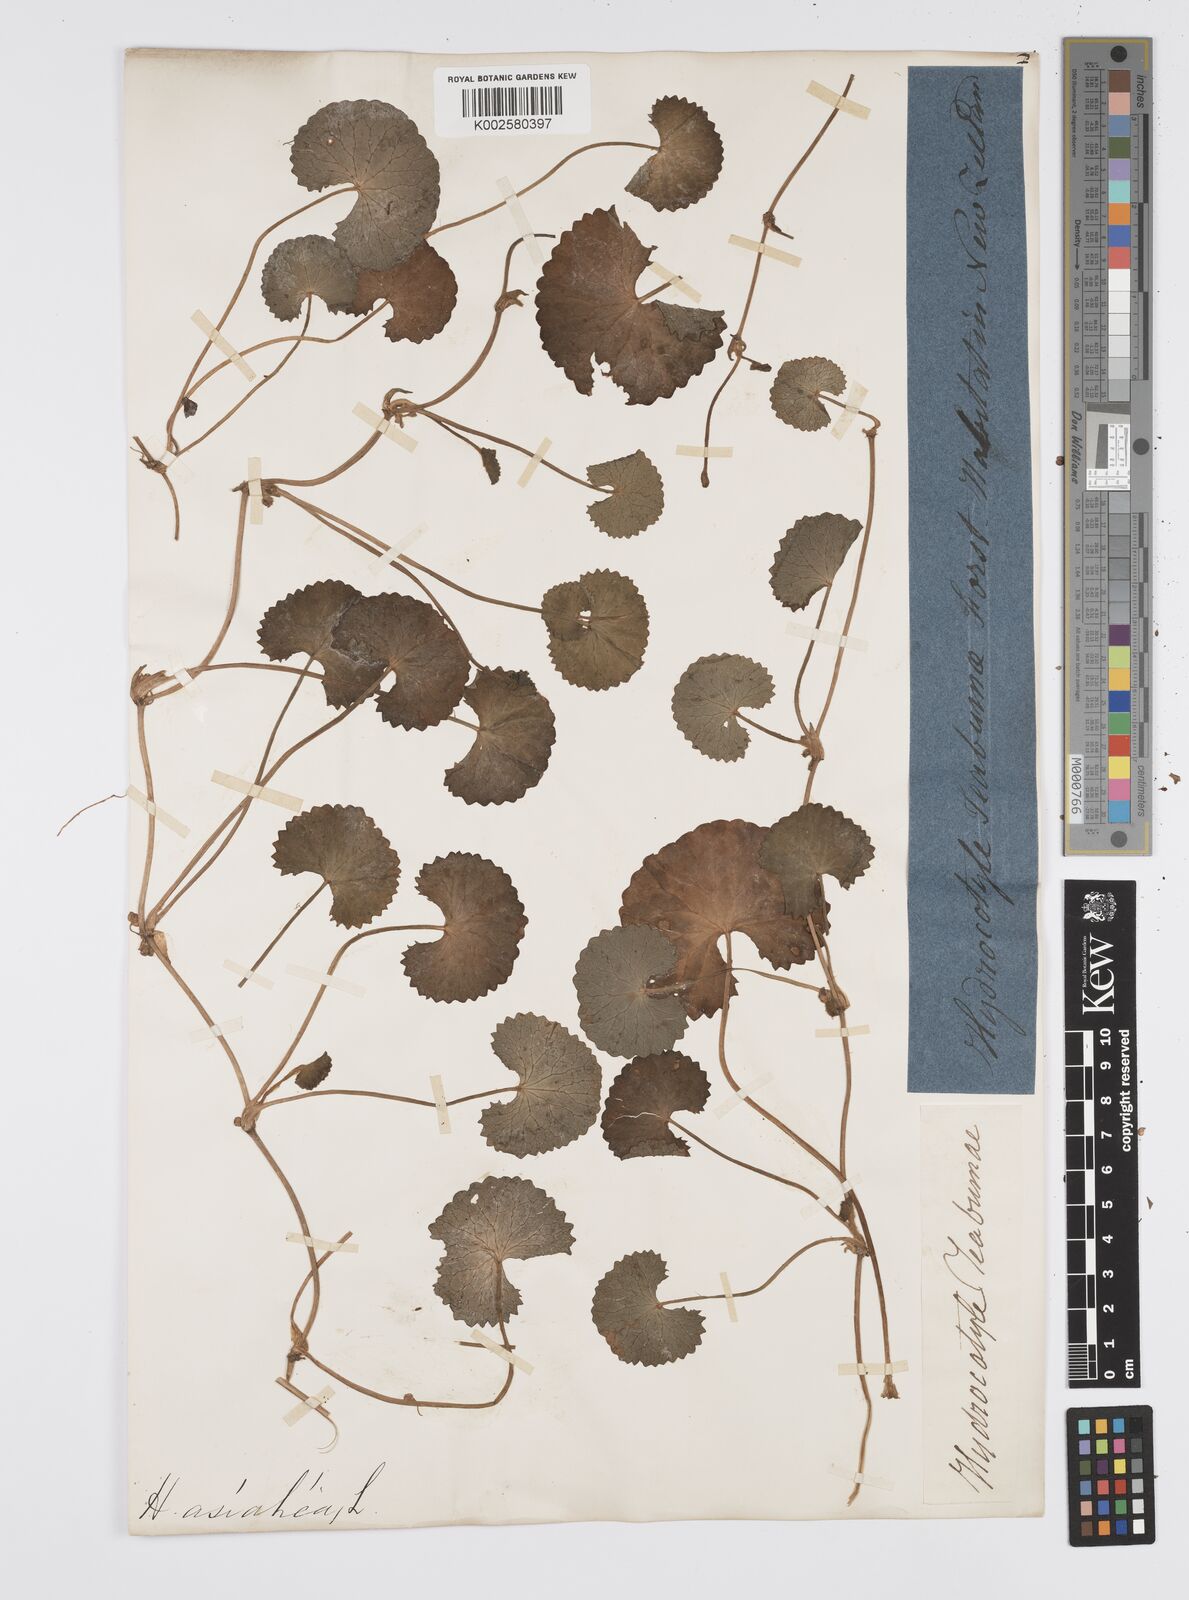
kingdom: Plantae
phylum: Tracheophyta
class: Magnoliopsida
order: Apiales
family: Apiaceae
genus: Centella
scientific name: Centella asiatica
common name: Spadeleaf
